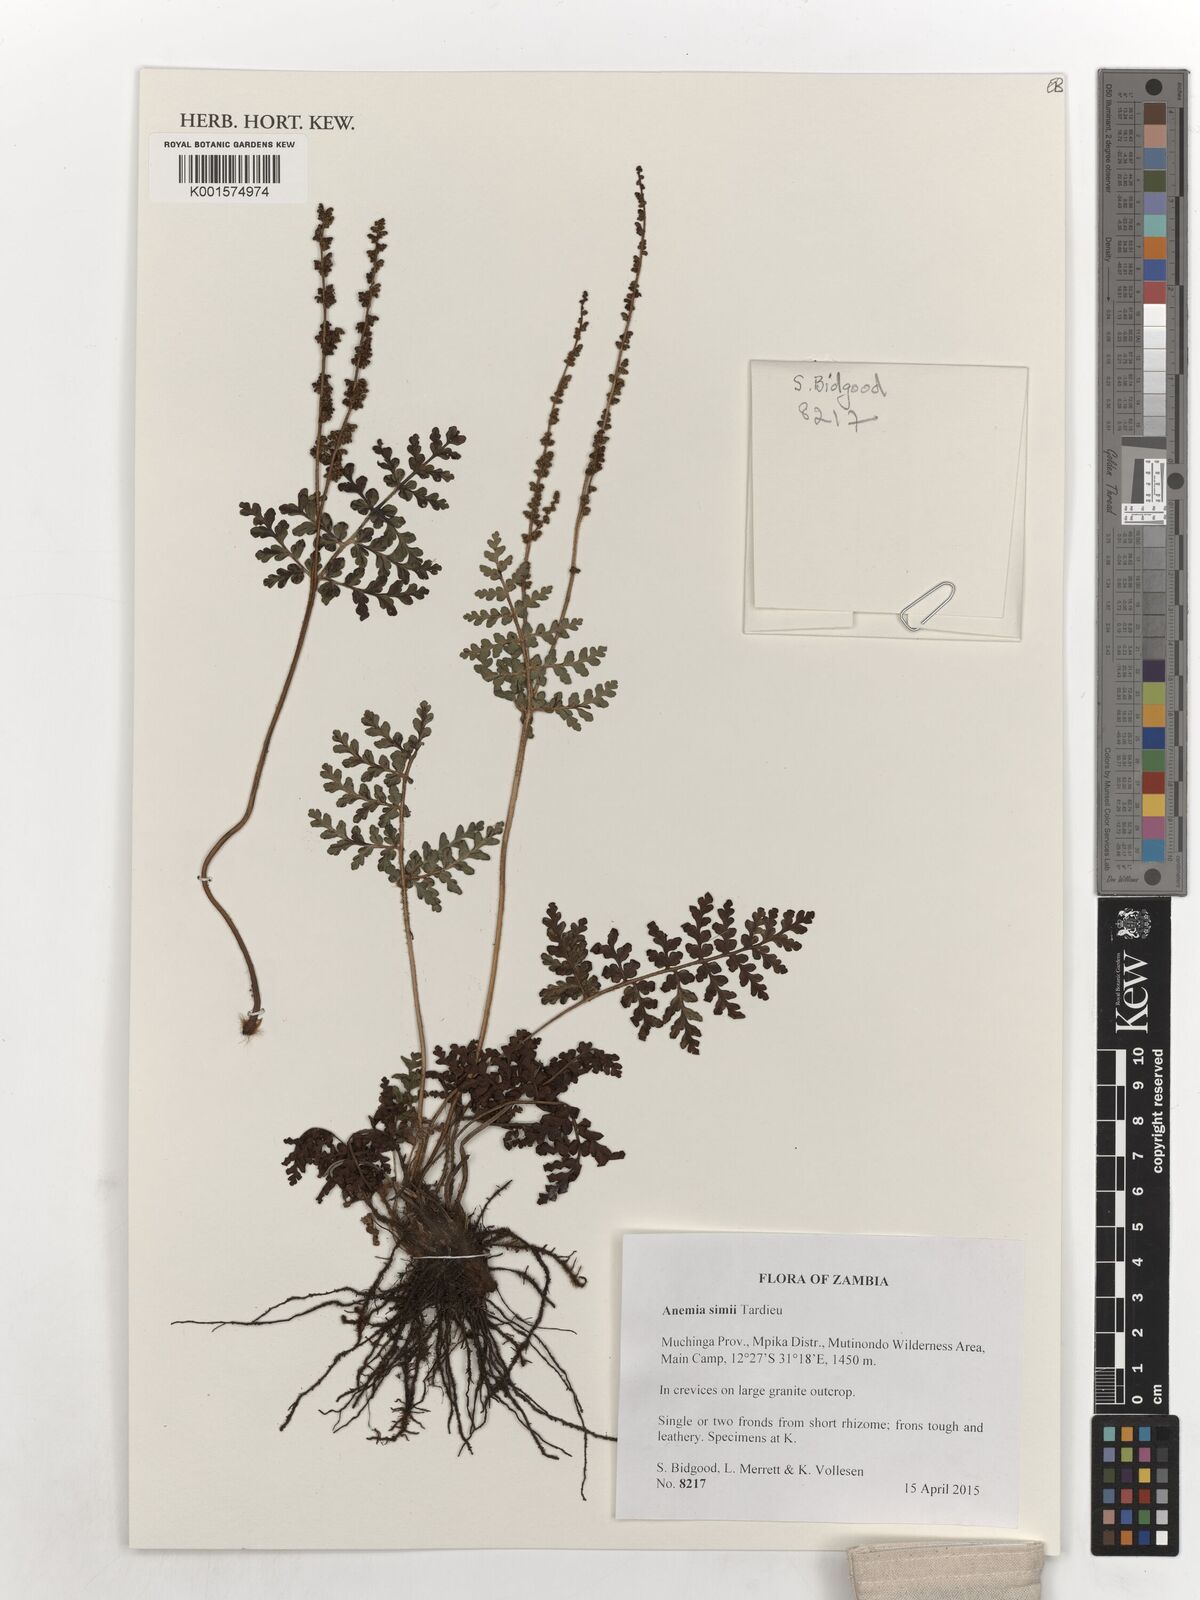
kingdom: Plantae
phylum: Tracheophyta
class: Polypodiopsida
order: Schizaeales
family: Anemiaceae
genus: Anemia
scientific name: Anemia simii
